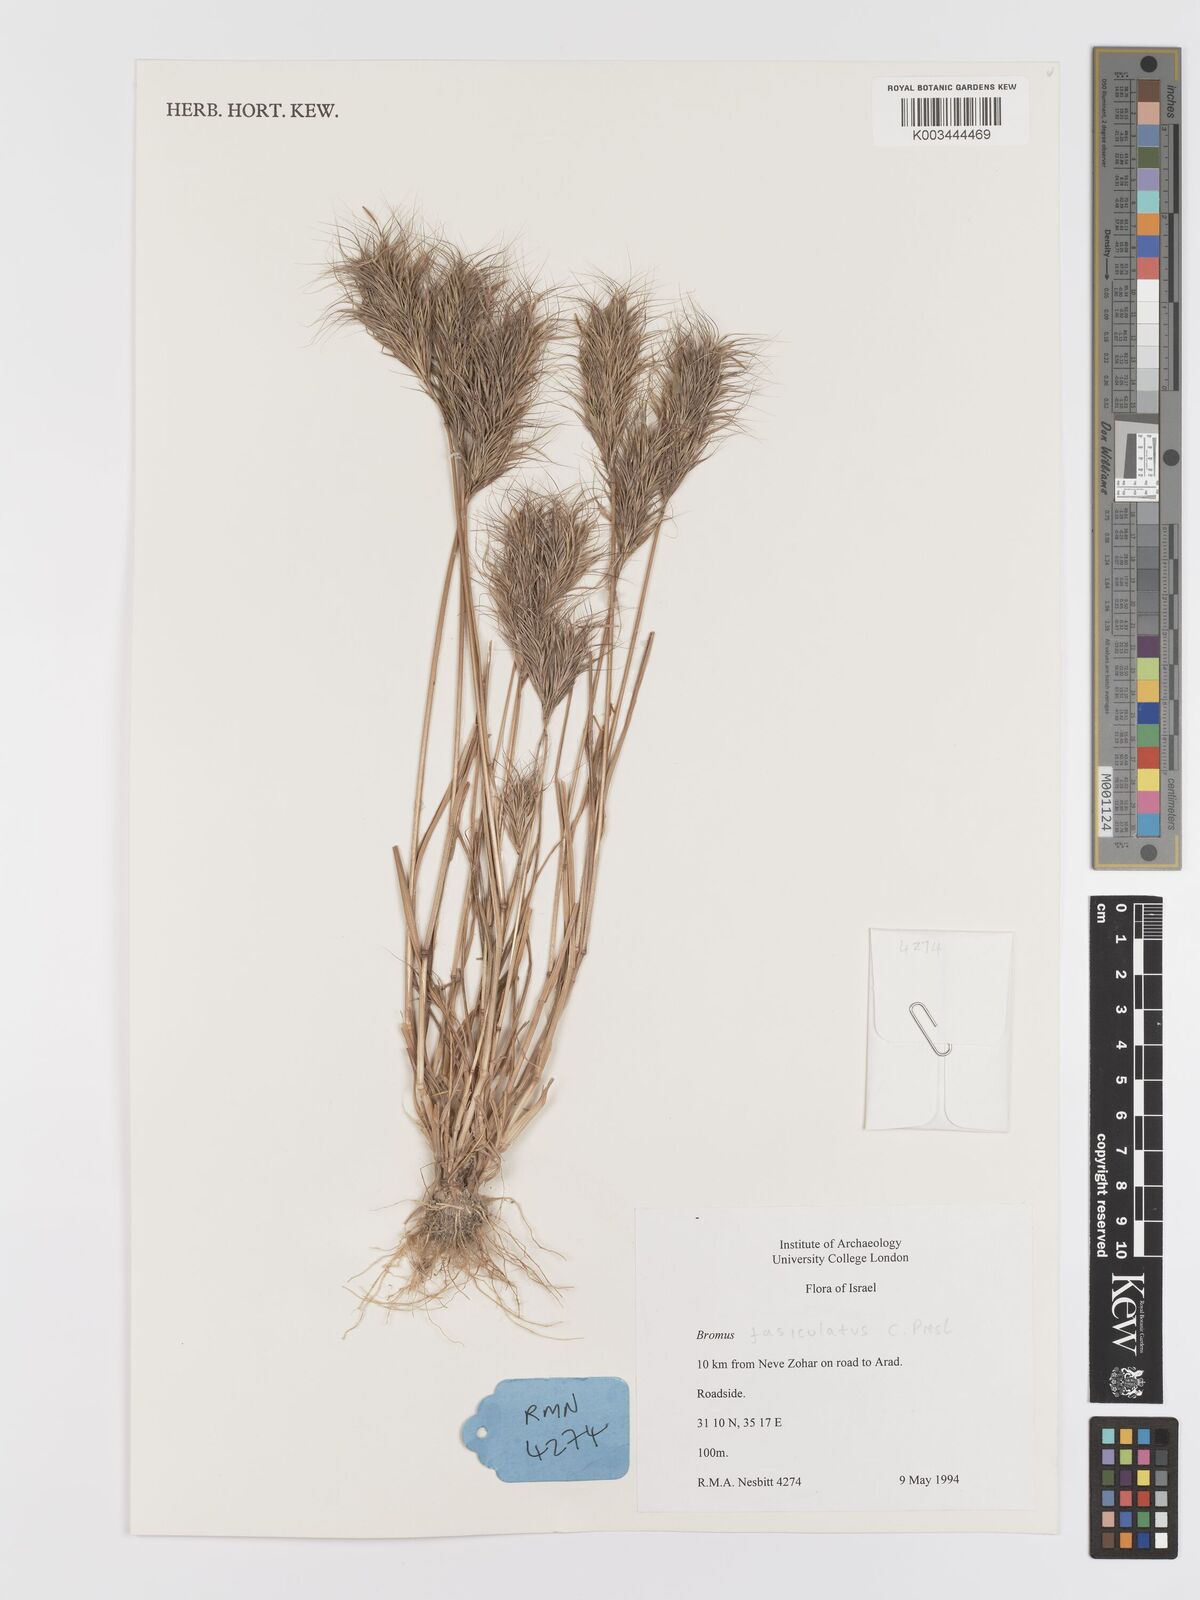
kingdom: Plantae
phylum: Tracheophyta
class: Liliopsida
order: Poales
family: Poaceae
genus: Bromus
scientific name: Bromus fasciculatus
